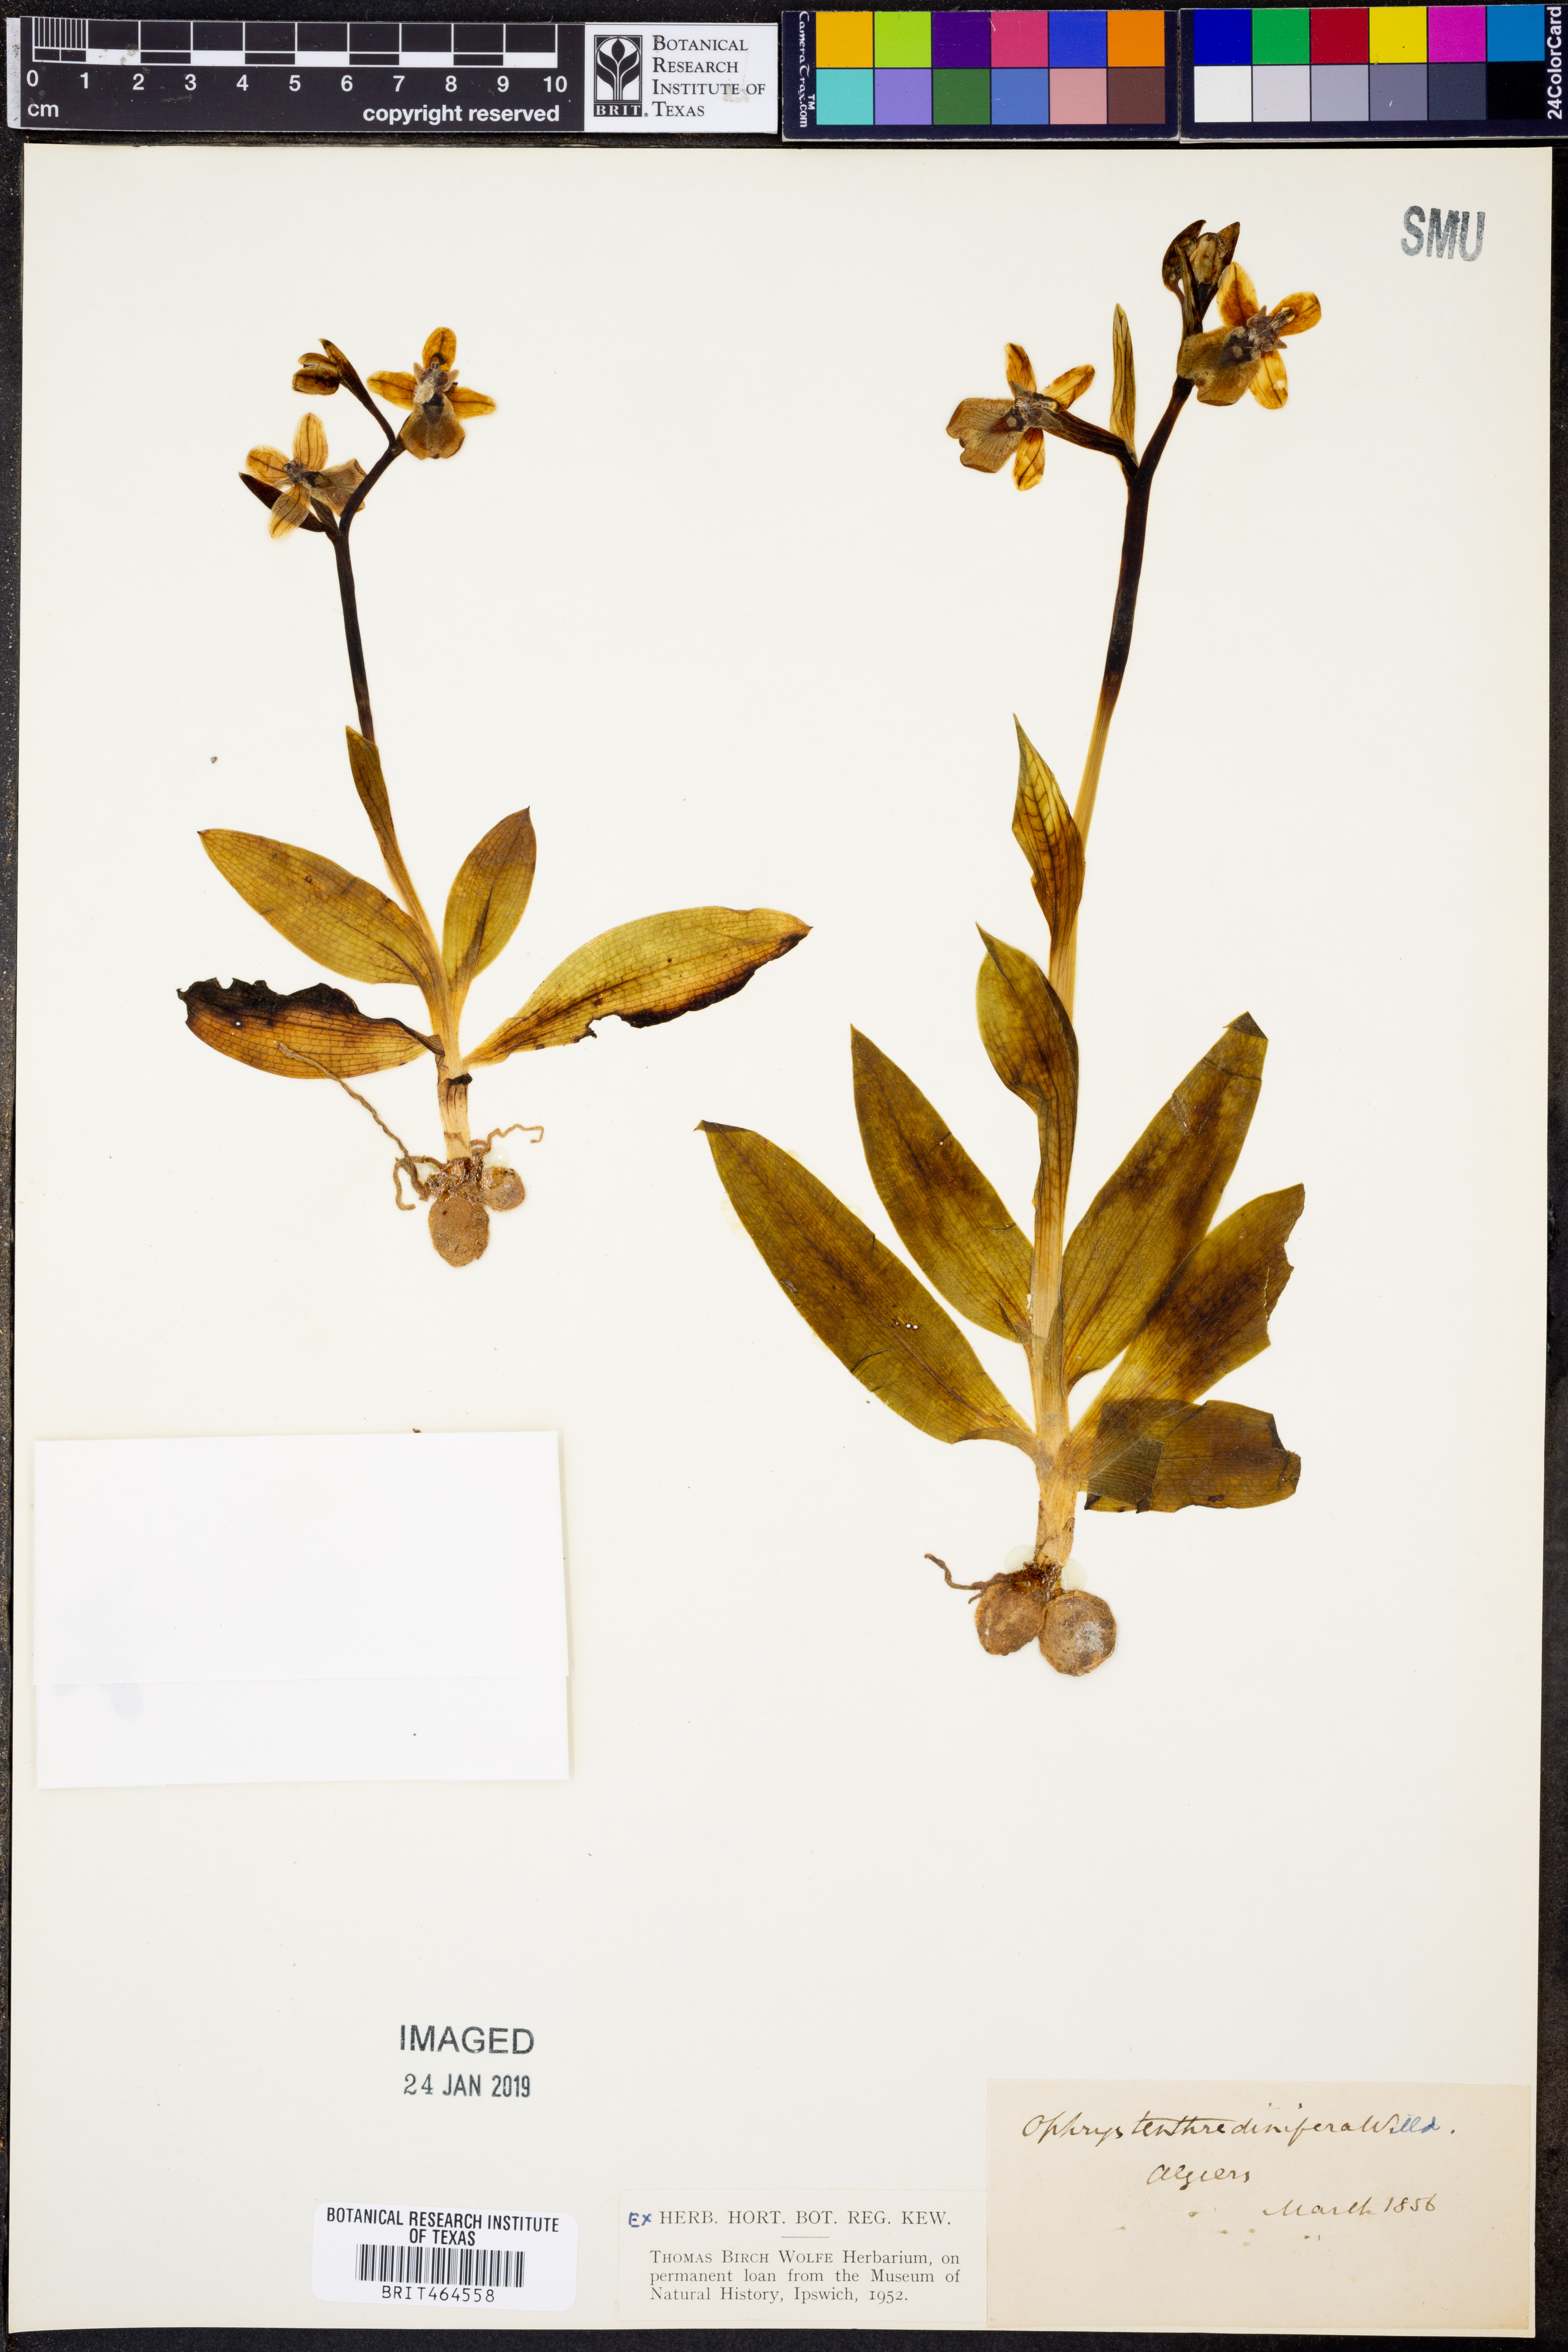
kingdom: Plantae
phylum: Tracheophyta
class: Liliopsida
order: Asparagales
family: Orchidaceae
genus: Ophrys
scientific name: Ophrys tenthredinifera
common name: Sawfly orchid
